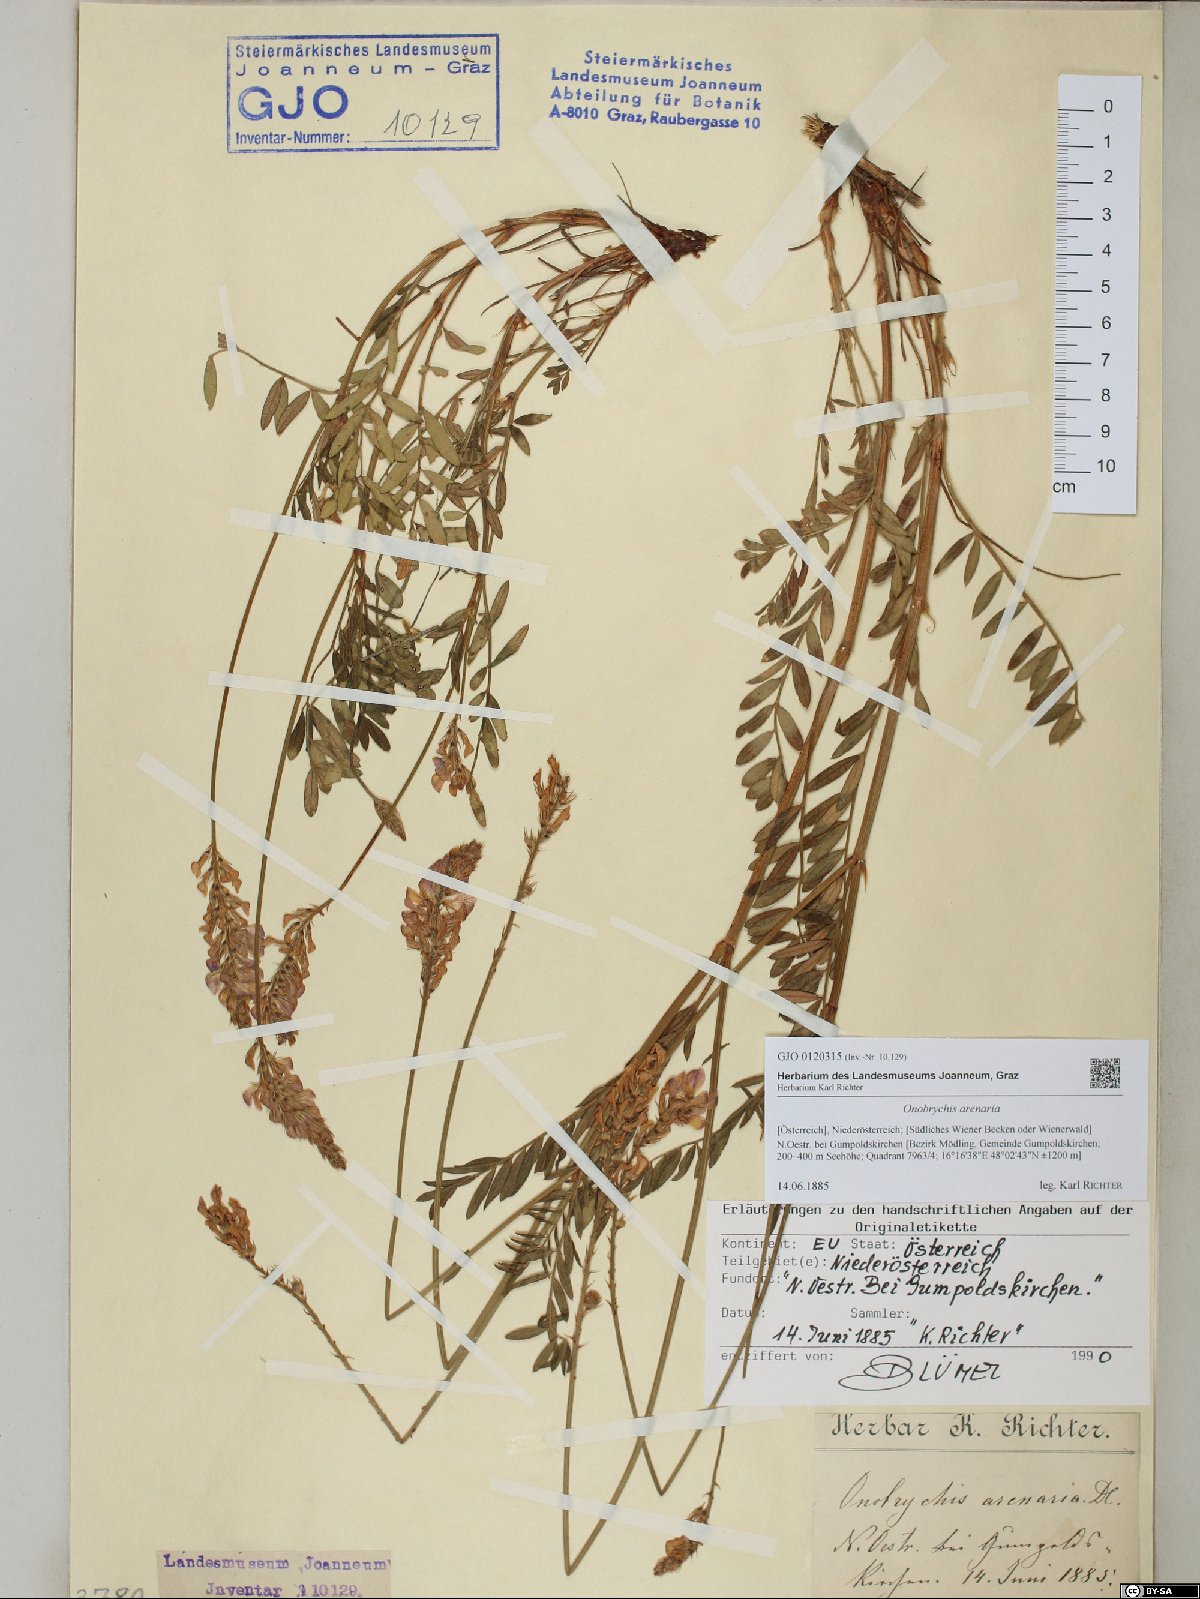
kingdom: Plantae
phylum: Tracheophyta
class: Magnoliopsida
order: Fabales
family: Fabaceae
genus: Onobrychis
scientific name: Onobrychis arenaria
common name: Sand esparcet
